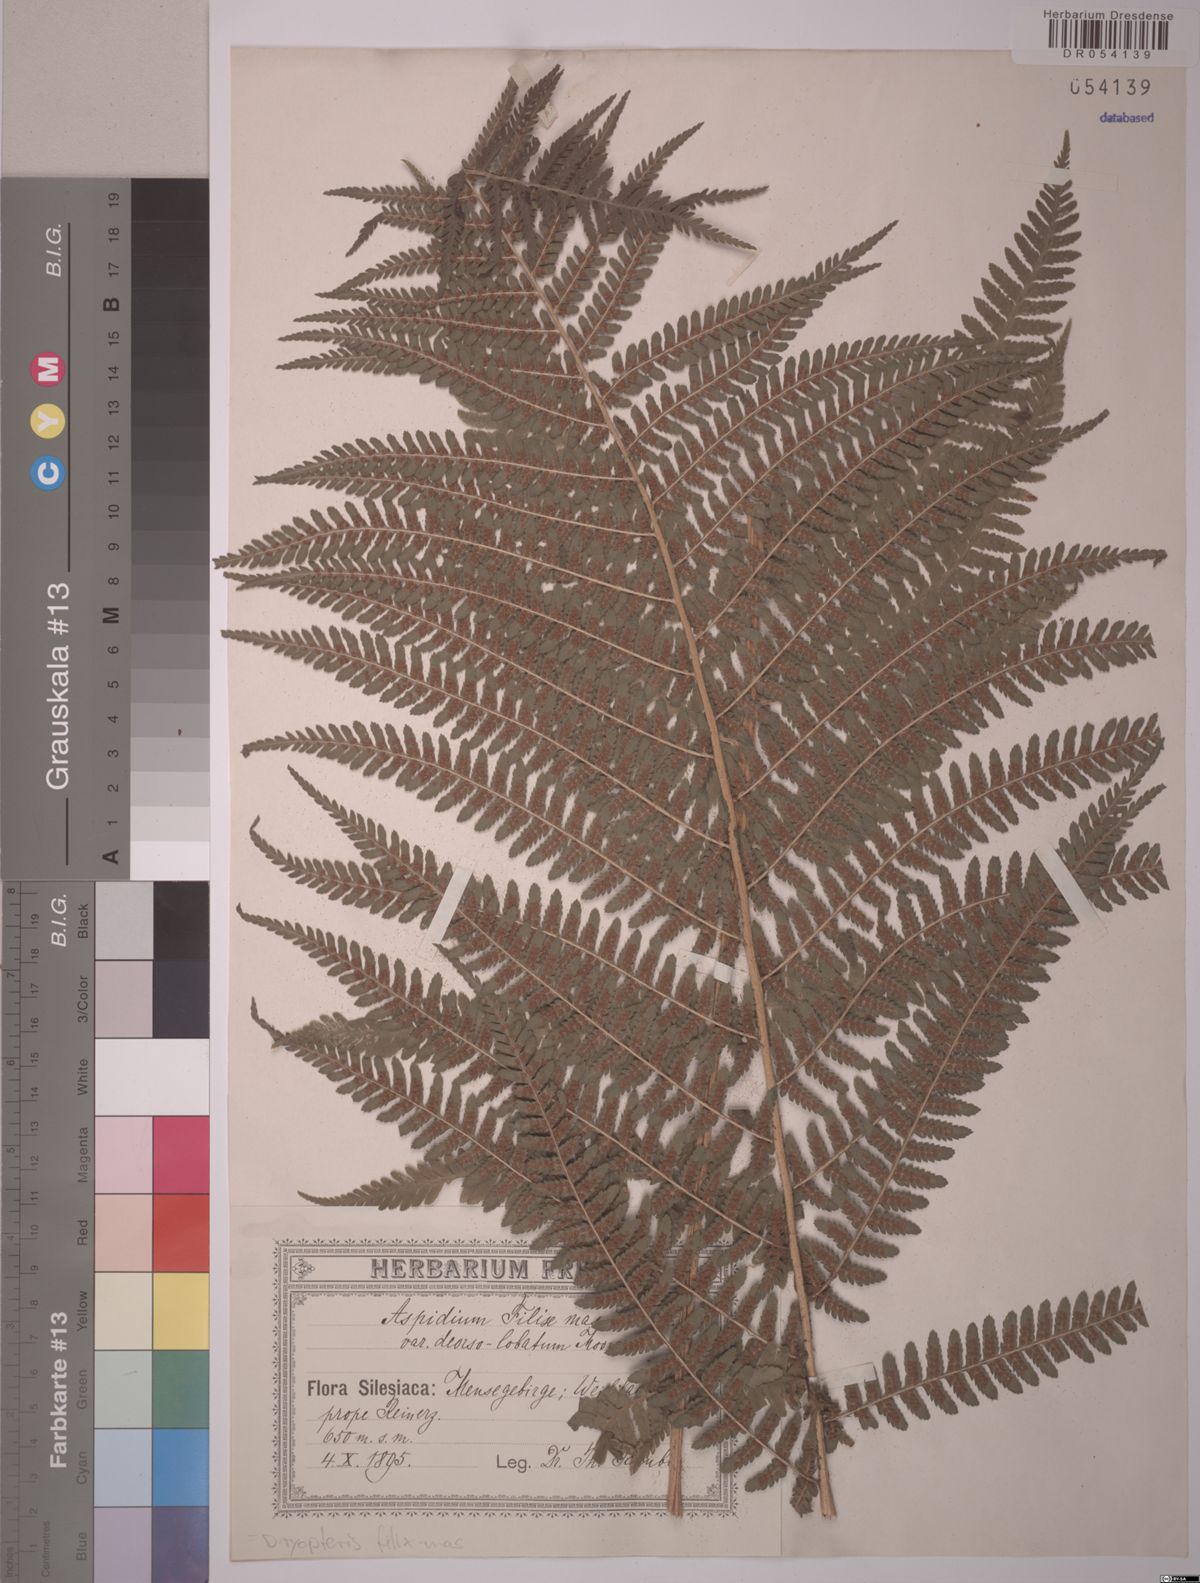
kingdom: Plantae
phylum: Tracheophyta
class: Polypodiopsida
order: Polypodiales
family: Dryopteridaceae
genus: Dryopteris
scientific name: Dryopteris filix-mas
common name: Male fern
